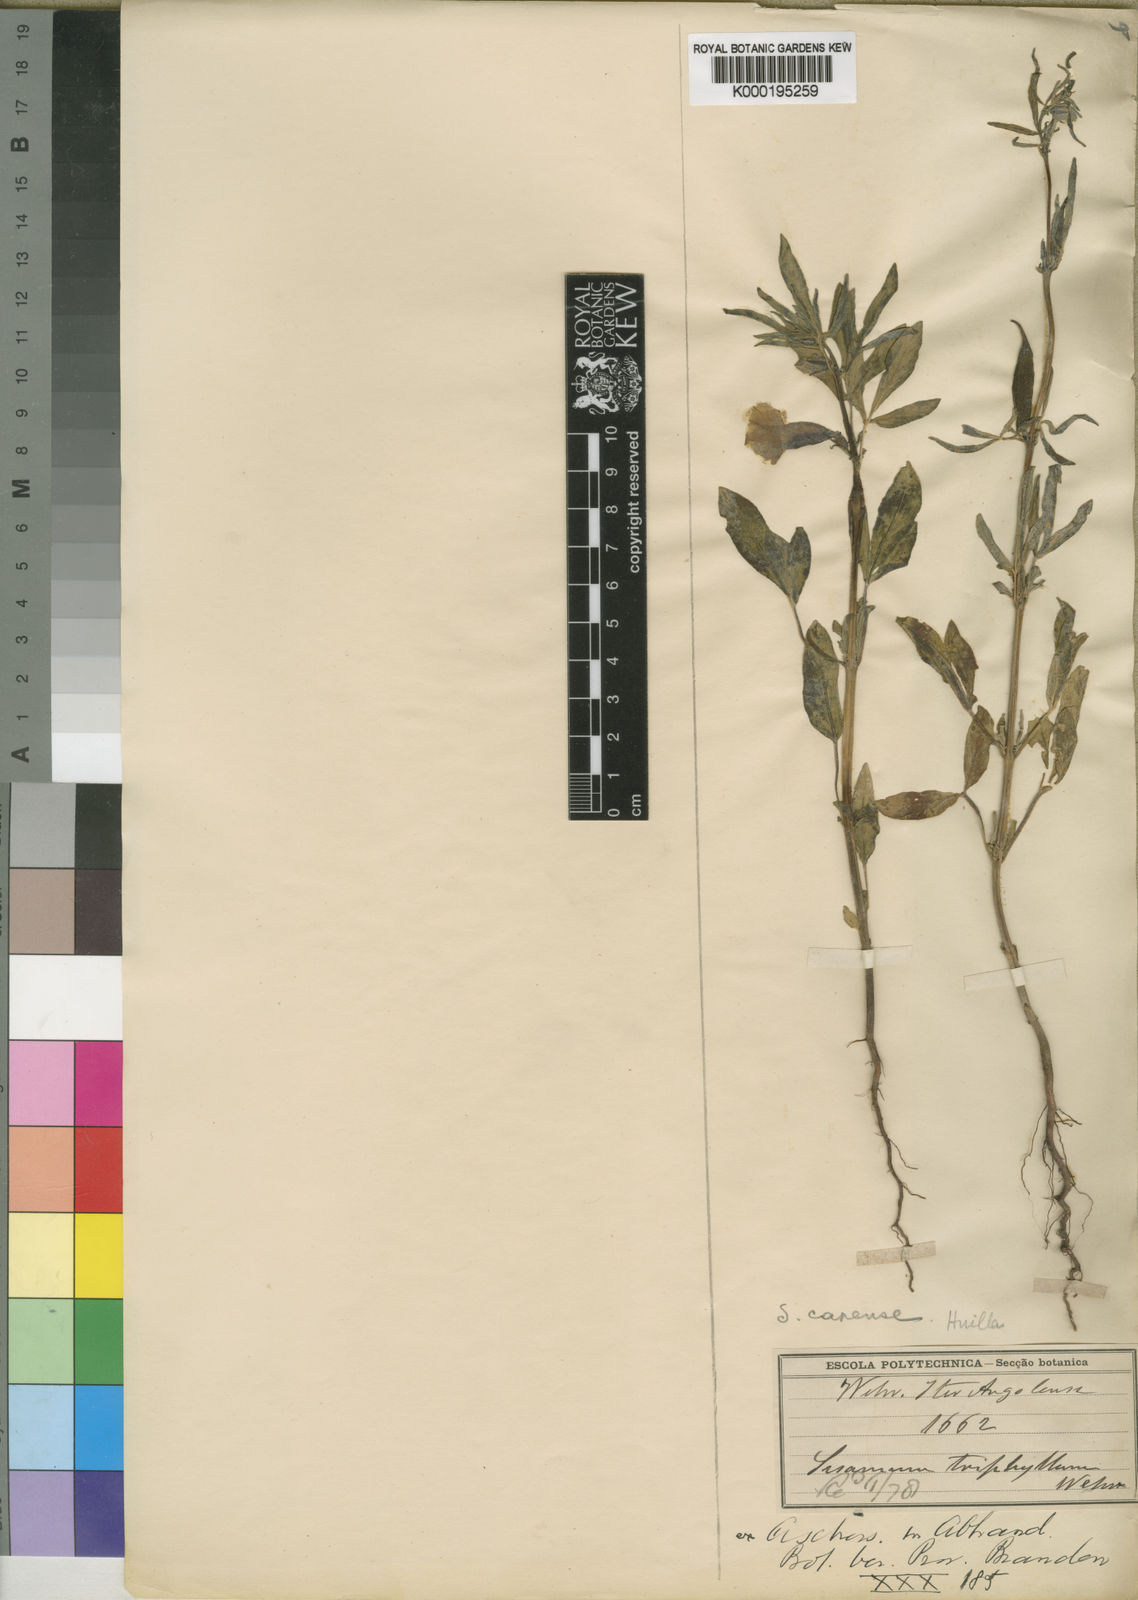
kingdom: Plantae
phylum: Tracheophyta
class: Magnoliopsida
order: Lamiales
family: Pedaliaceae
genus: Sesamum
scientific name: Sesamum capense
